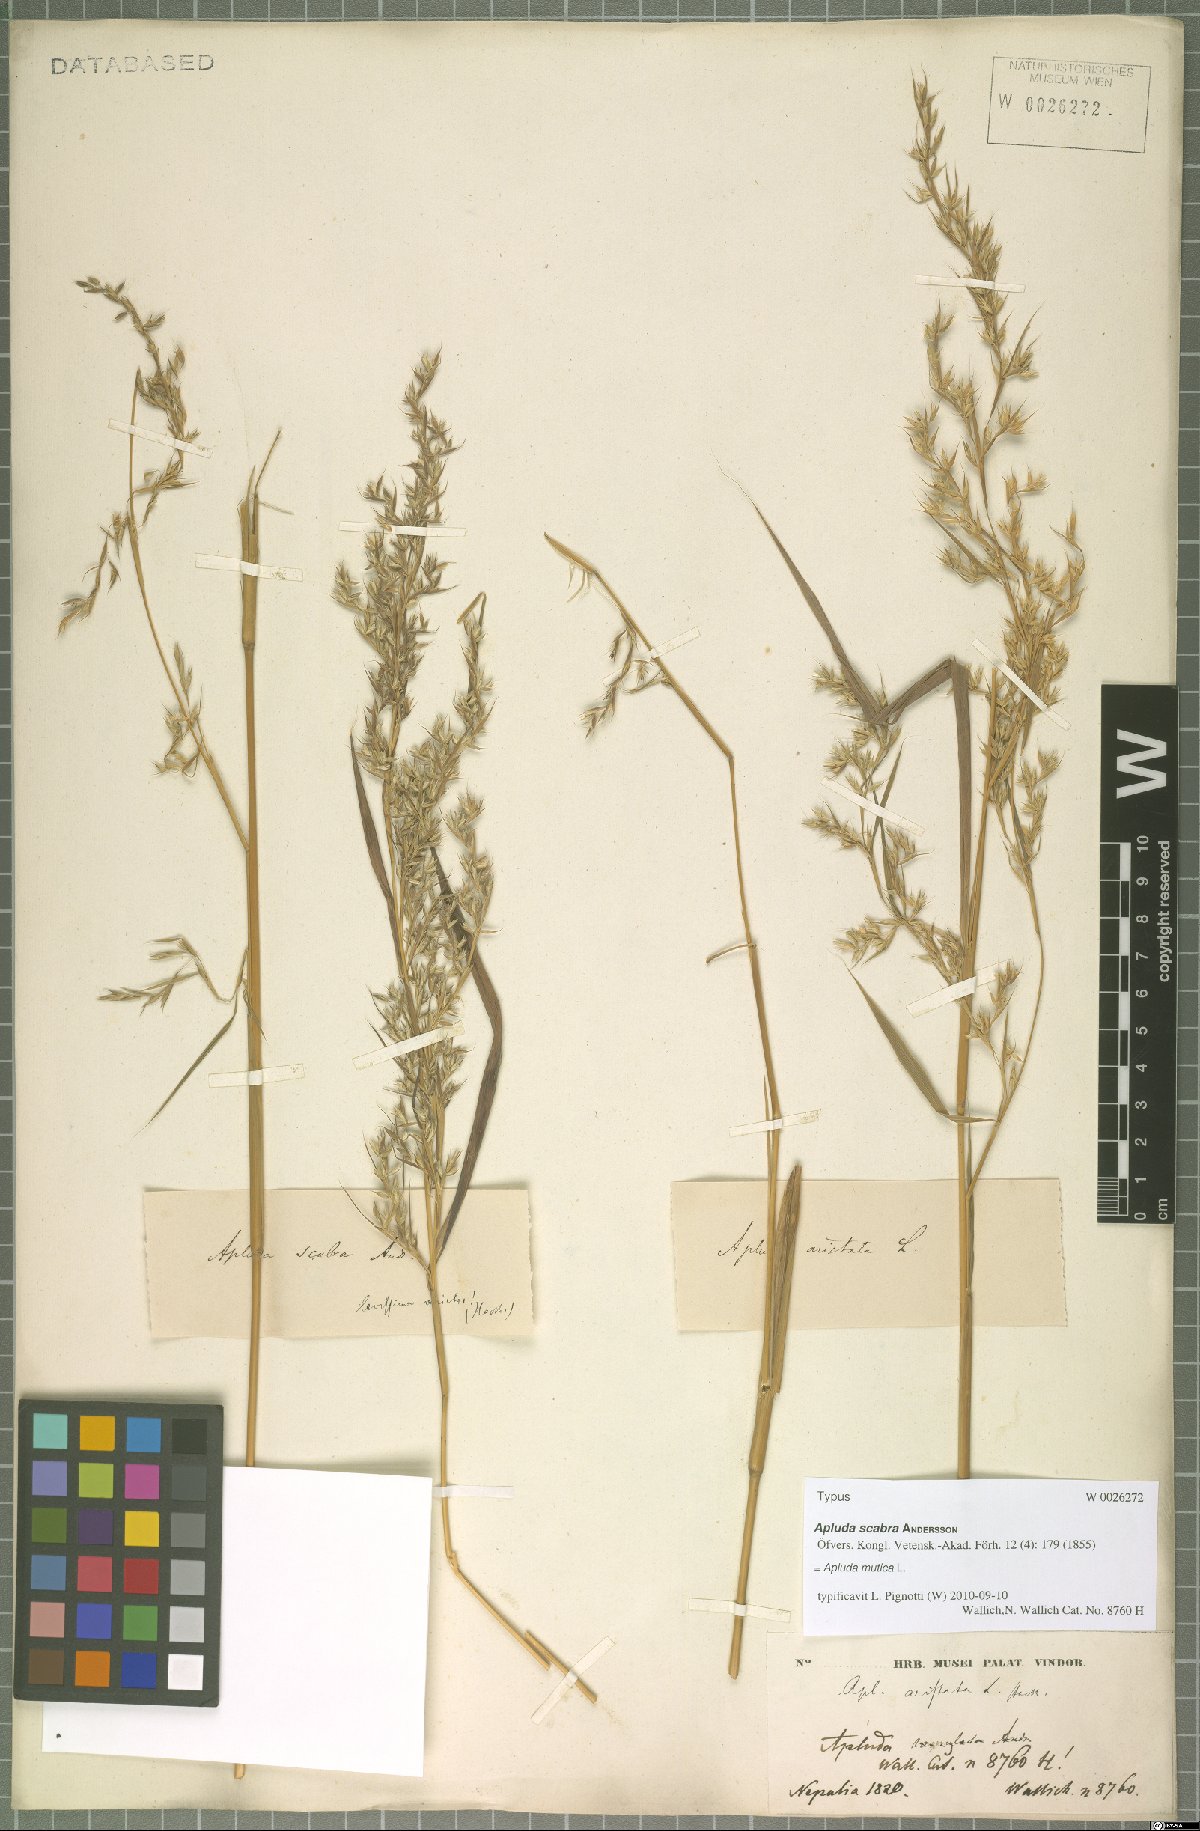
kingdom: Plantae
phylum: Tracheophyta
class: Liliopsida
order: Poales
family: Poaceae
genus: Apluda
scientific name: Apluda mutica
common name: Mauritian grass
